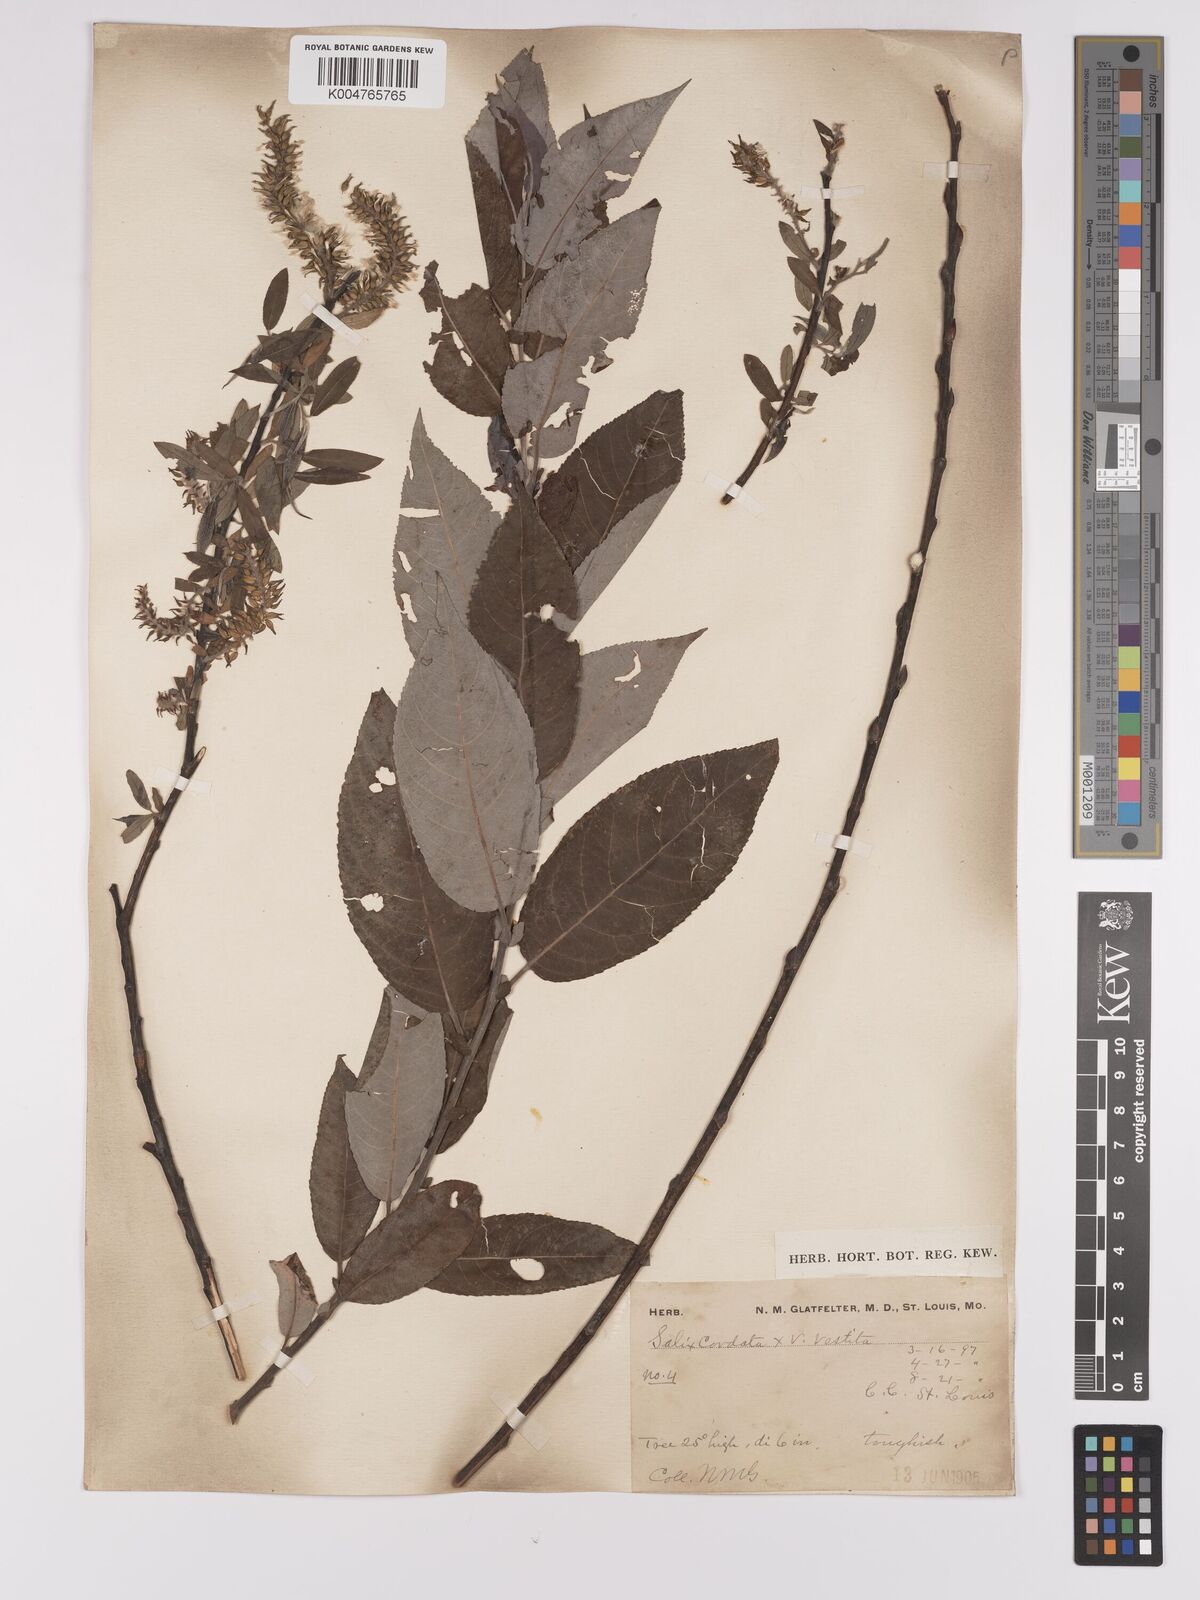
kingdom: Plantae
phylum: Tracheophyta
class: Magnoliopsida
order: Malpighiales
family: Salicaceae
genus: Salix
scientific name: Salix cordata
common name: Heart-leaf willow
